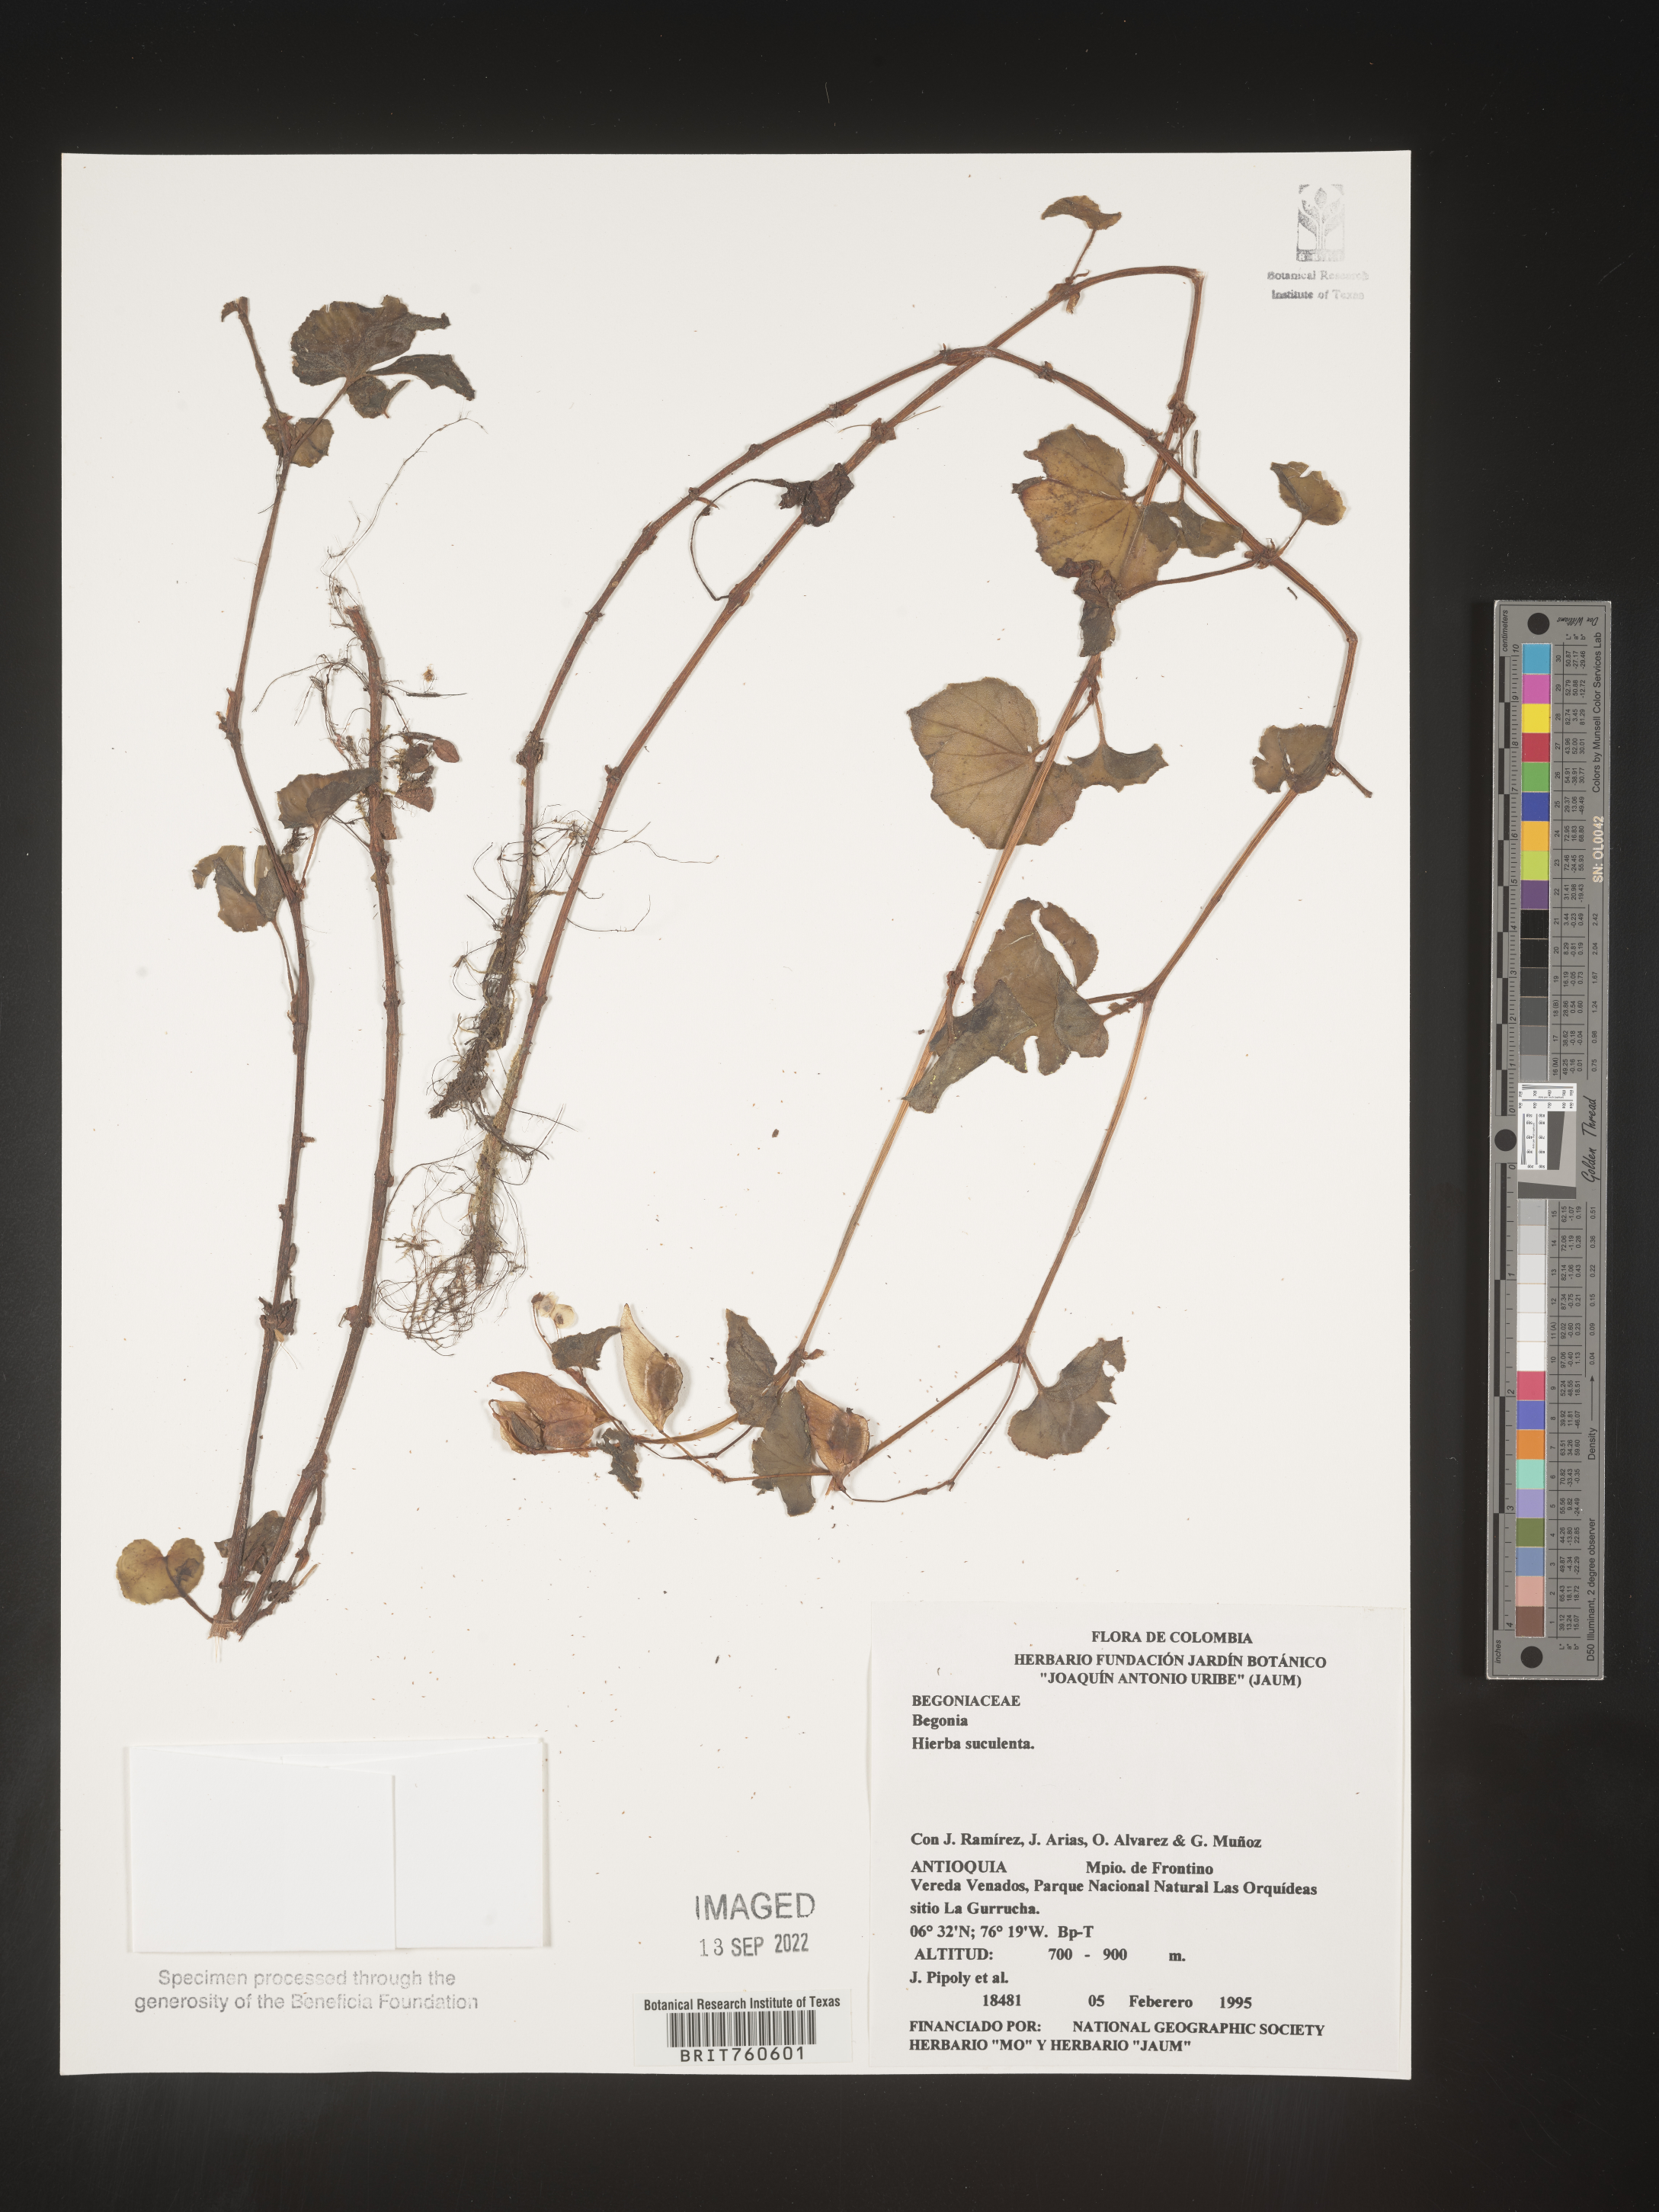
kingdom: Plantae
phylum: Tracheophyta
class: Magnoliopsida
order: Cucurbitales
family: Begoniaceae
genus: Begonia
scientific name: Begonia fischeri
